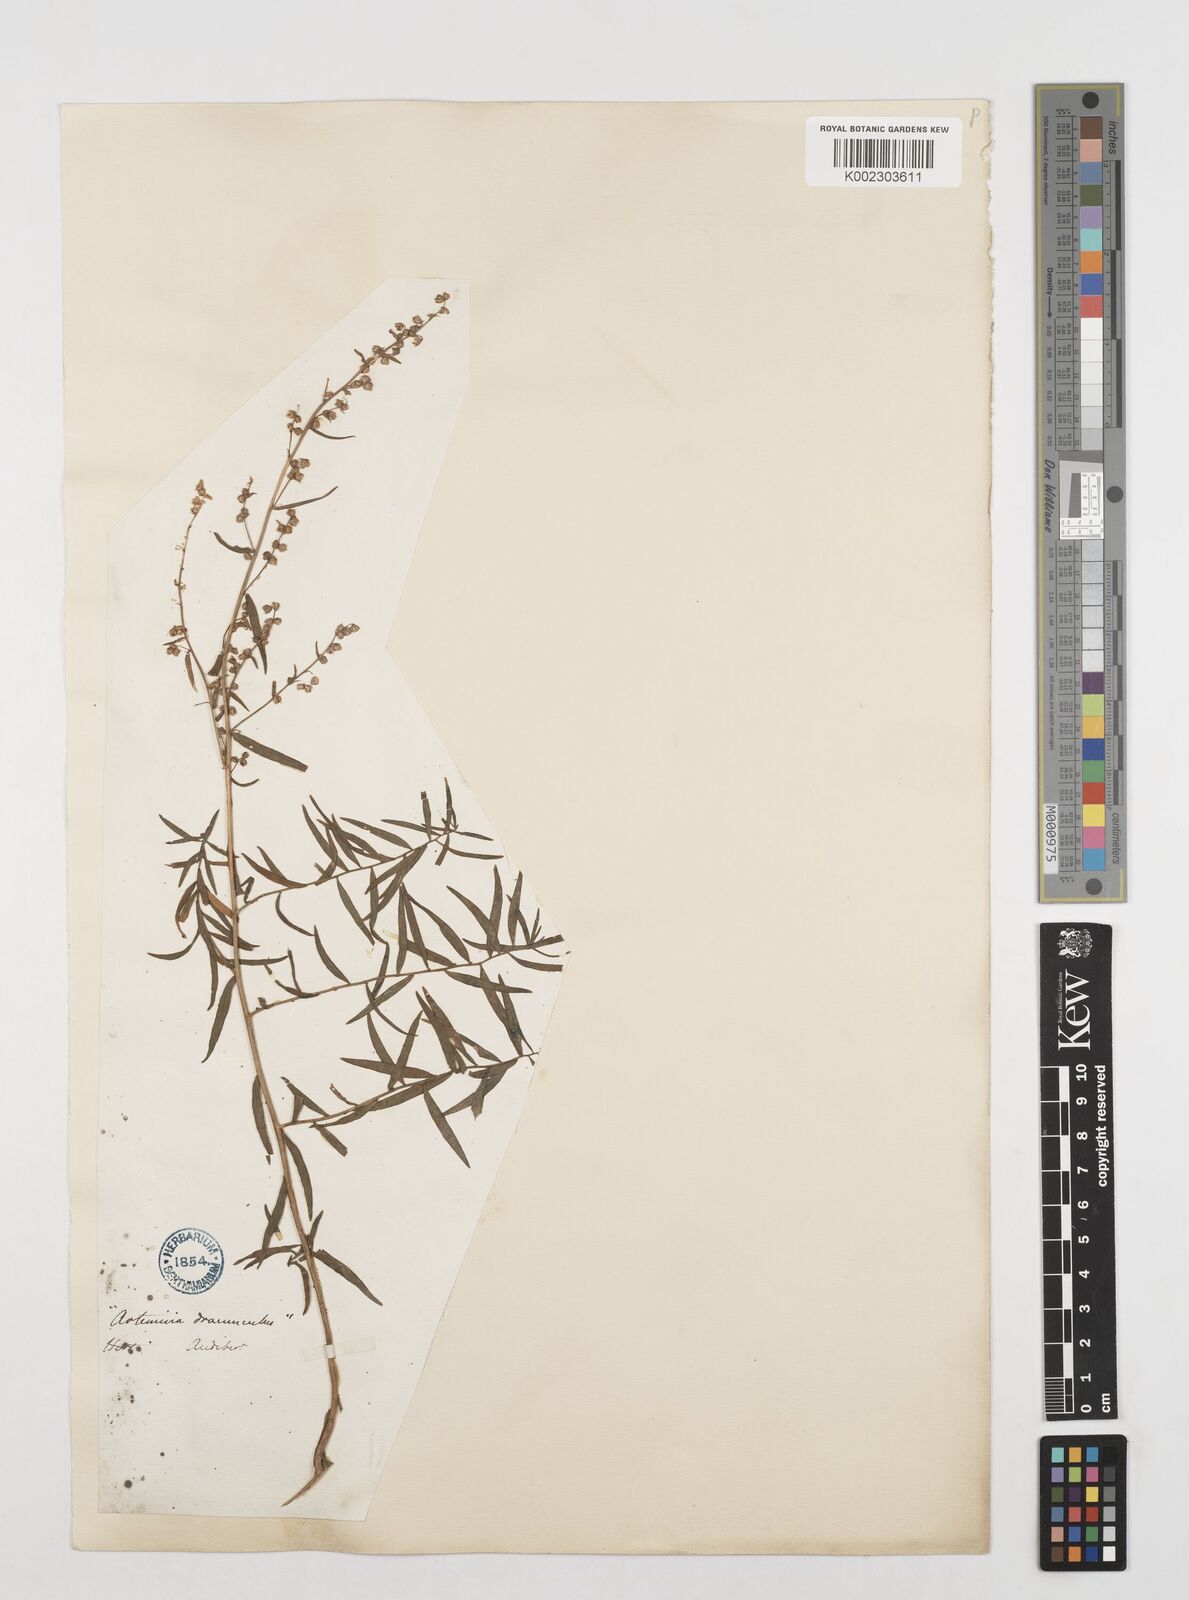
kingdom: Plantae
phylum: Tracheophyta
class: Magnoliopsida
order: Asterales
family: Asteraceae
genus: Artemisia
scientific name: Artemisia dracunculus
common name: Tarragon
